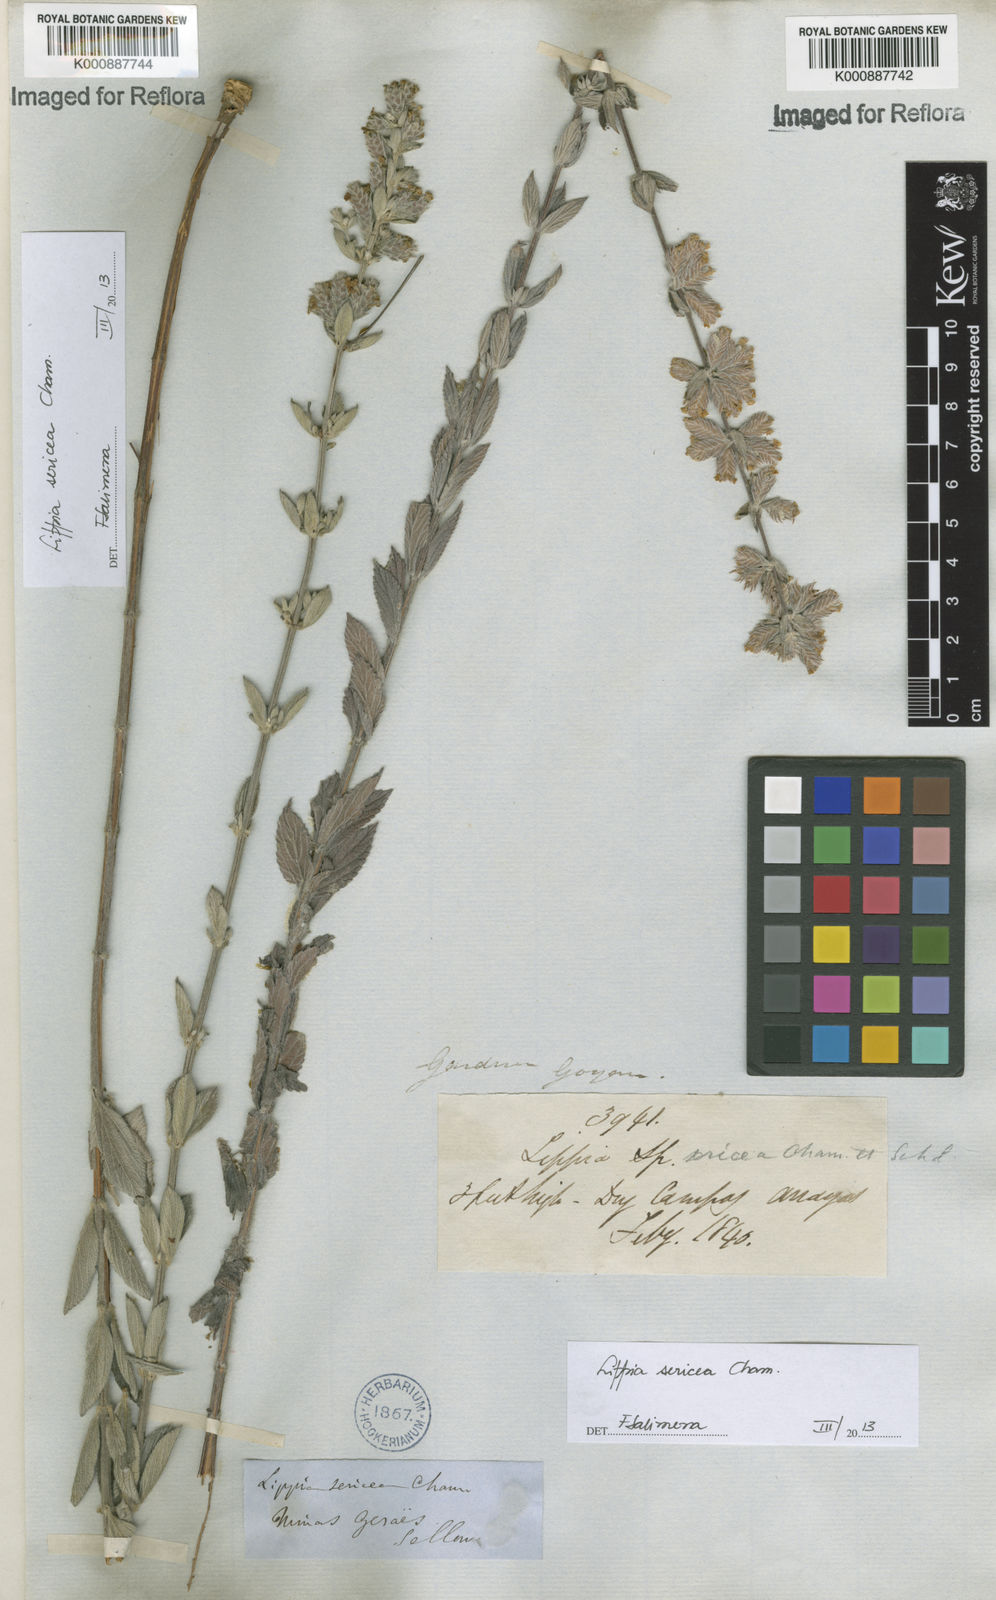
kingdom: Plantae
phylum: Tracheophyta
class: Magnoliopsida
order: Lamiales
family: Verbenaceae
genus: Lippia
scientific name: Lippia sericea
